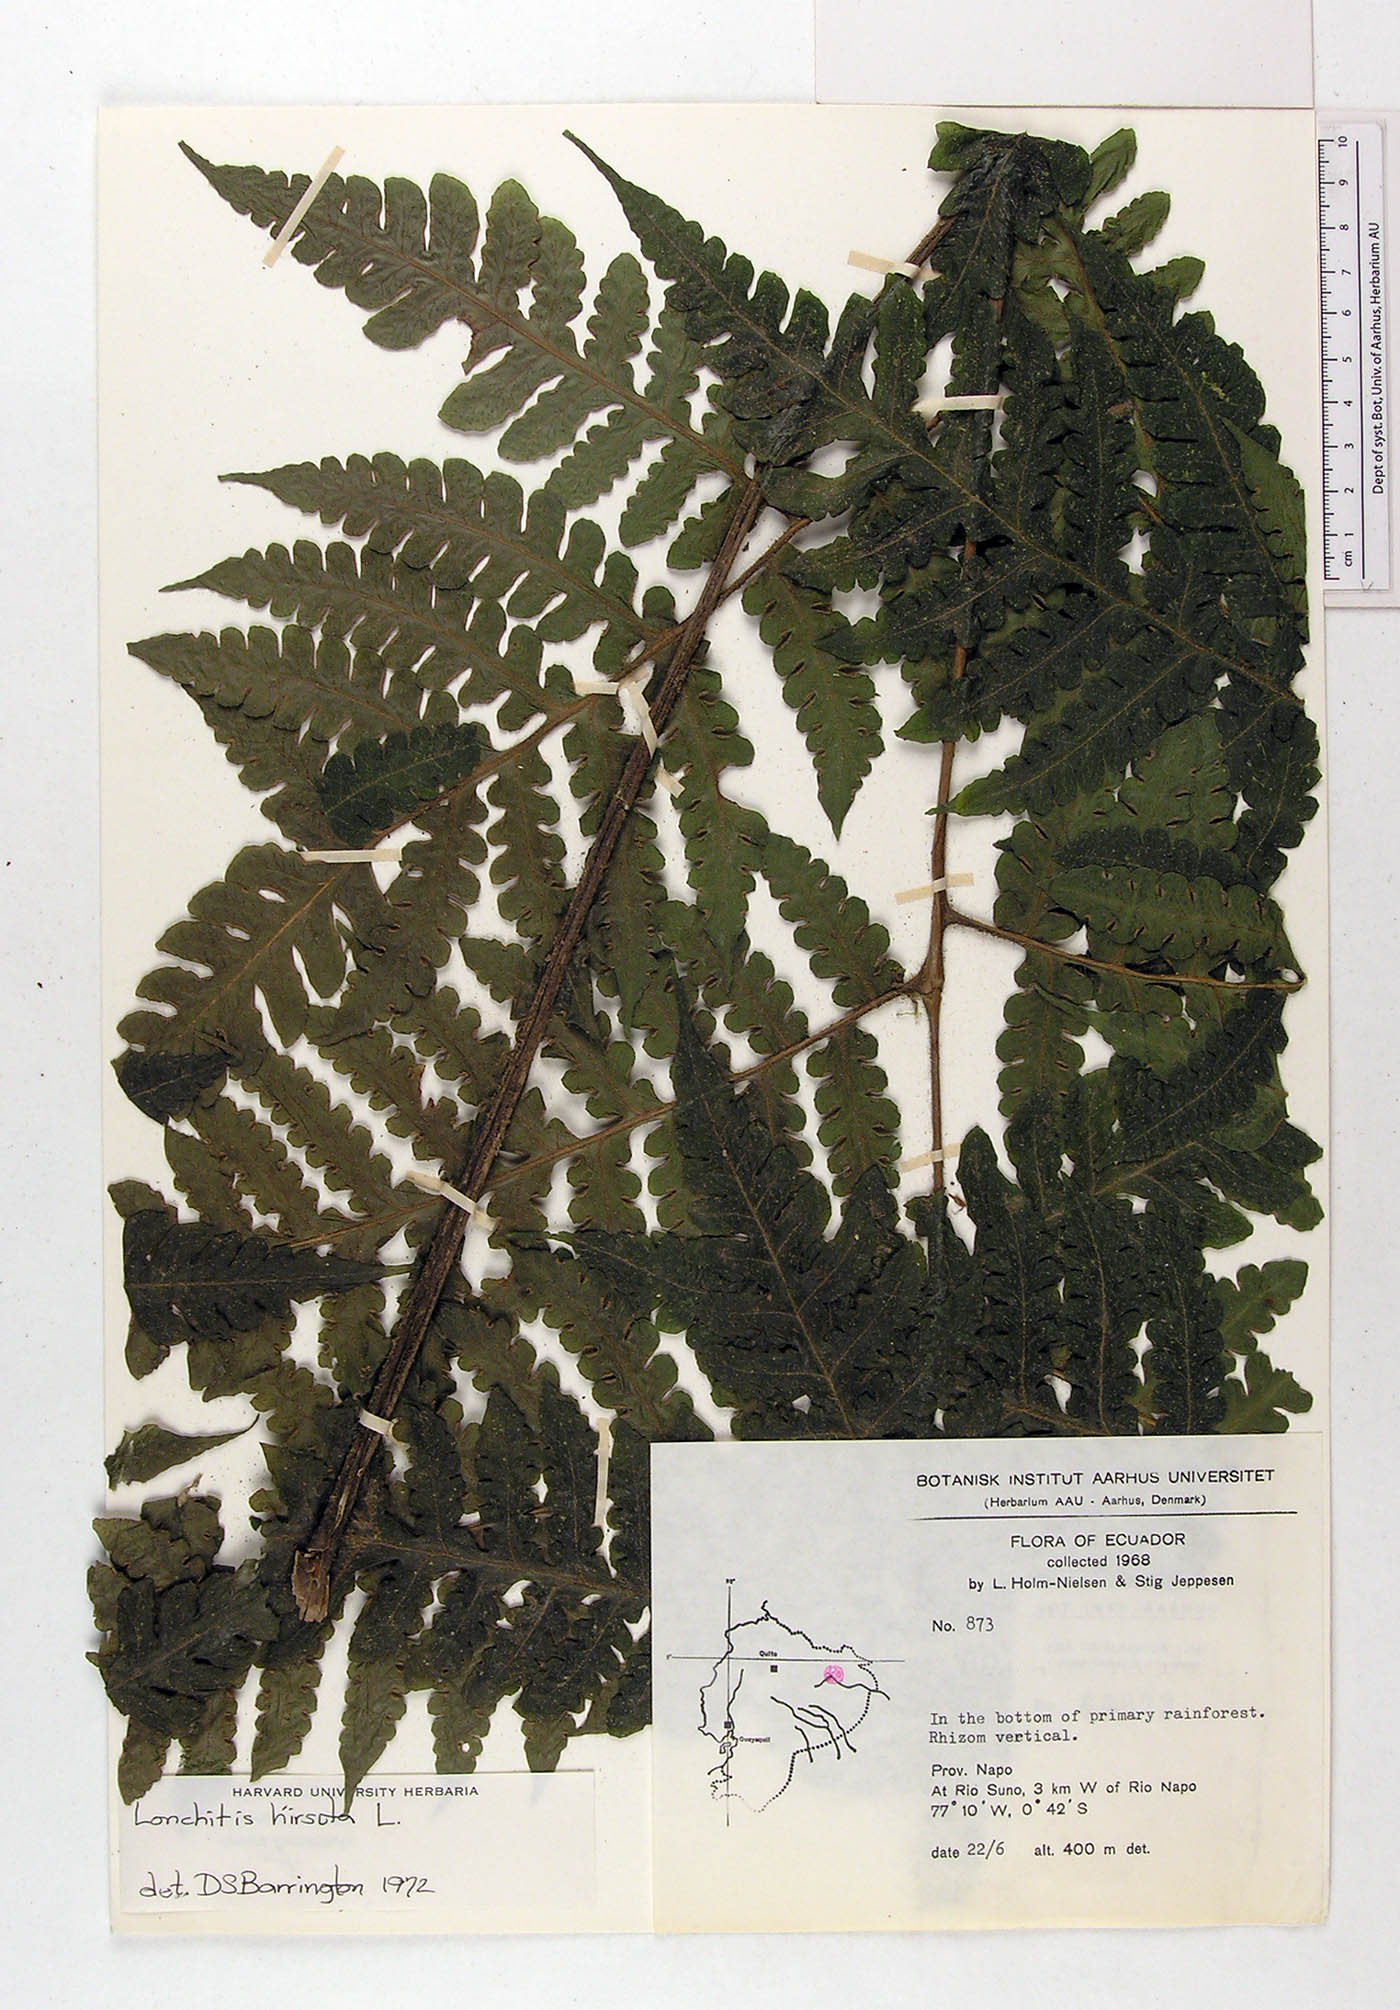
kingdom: Plantae
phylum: Tracheophyta
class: Polypodiopsida
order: Polypodiales
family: Lonchitidaceae
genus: Lonchitis
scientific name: Lonchitis hirsuta
